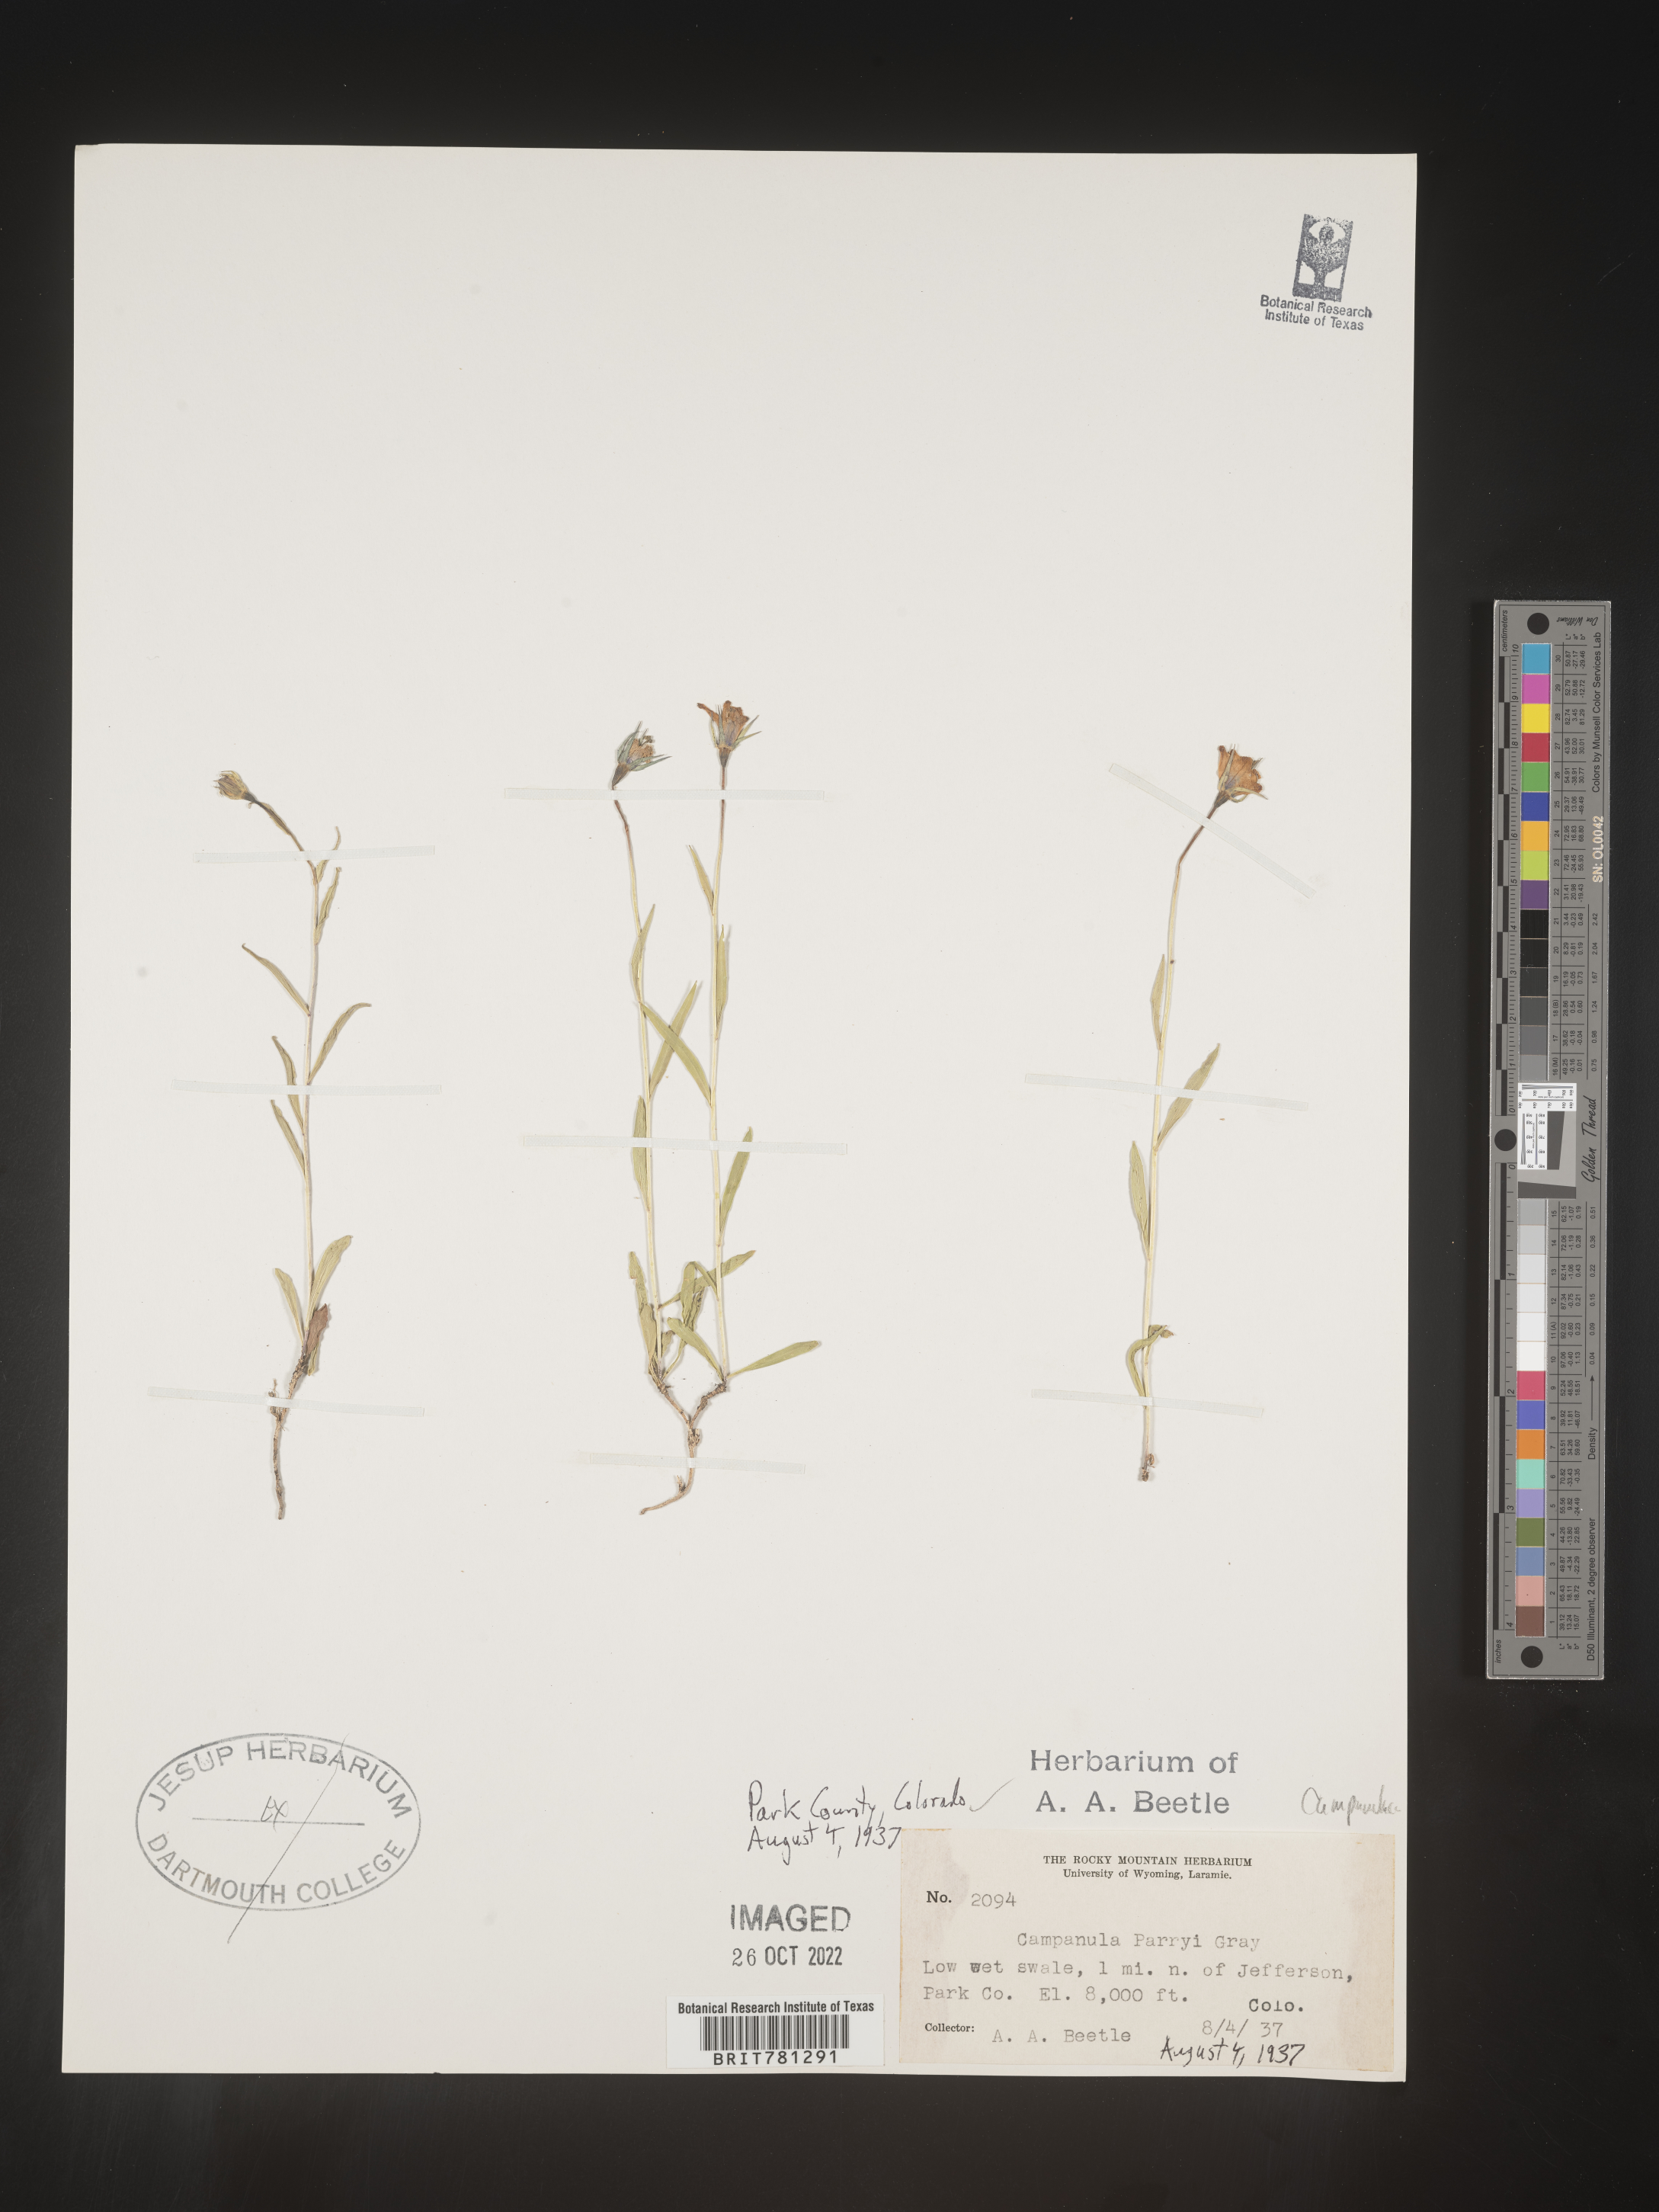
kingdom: Plantae
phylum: Tracheophyta
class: Magnoliopsida
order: Asterales
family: Campanulaceae
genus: Campanula
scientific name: Campanula parryi
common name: Rocky mountain bellflower
